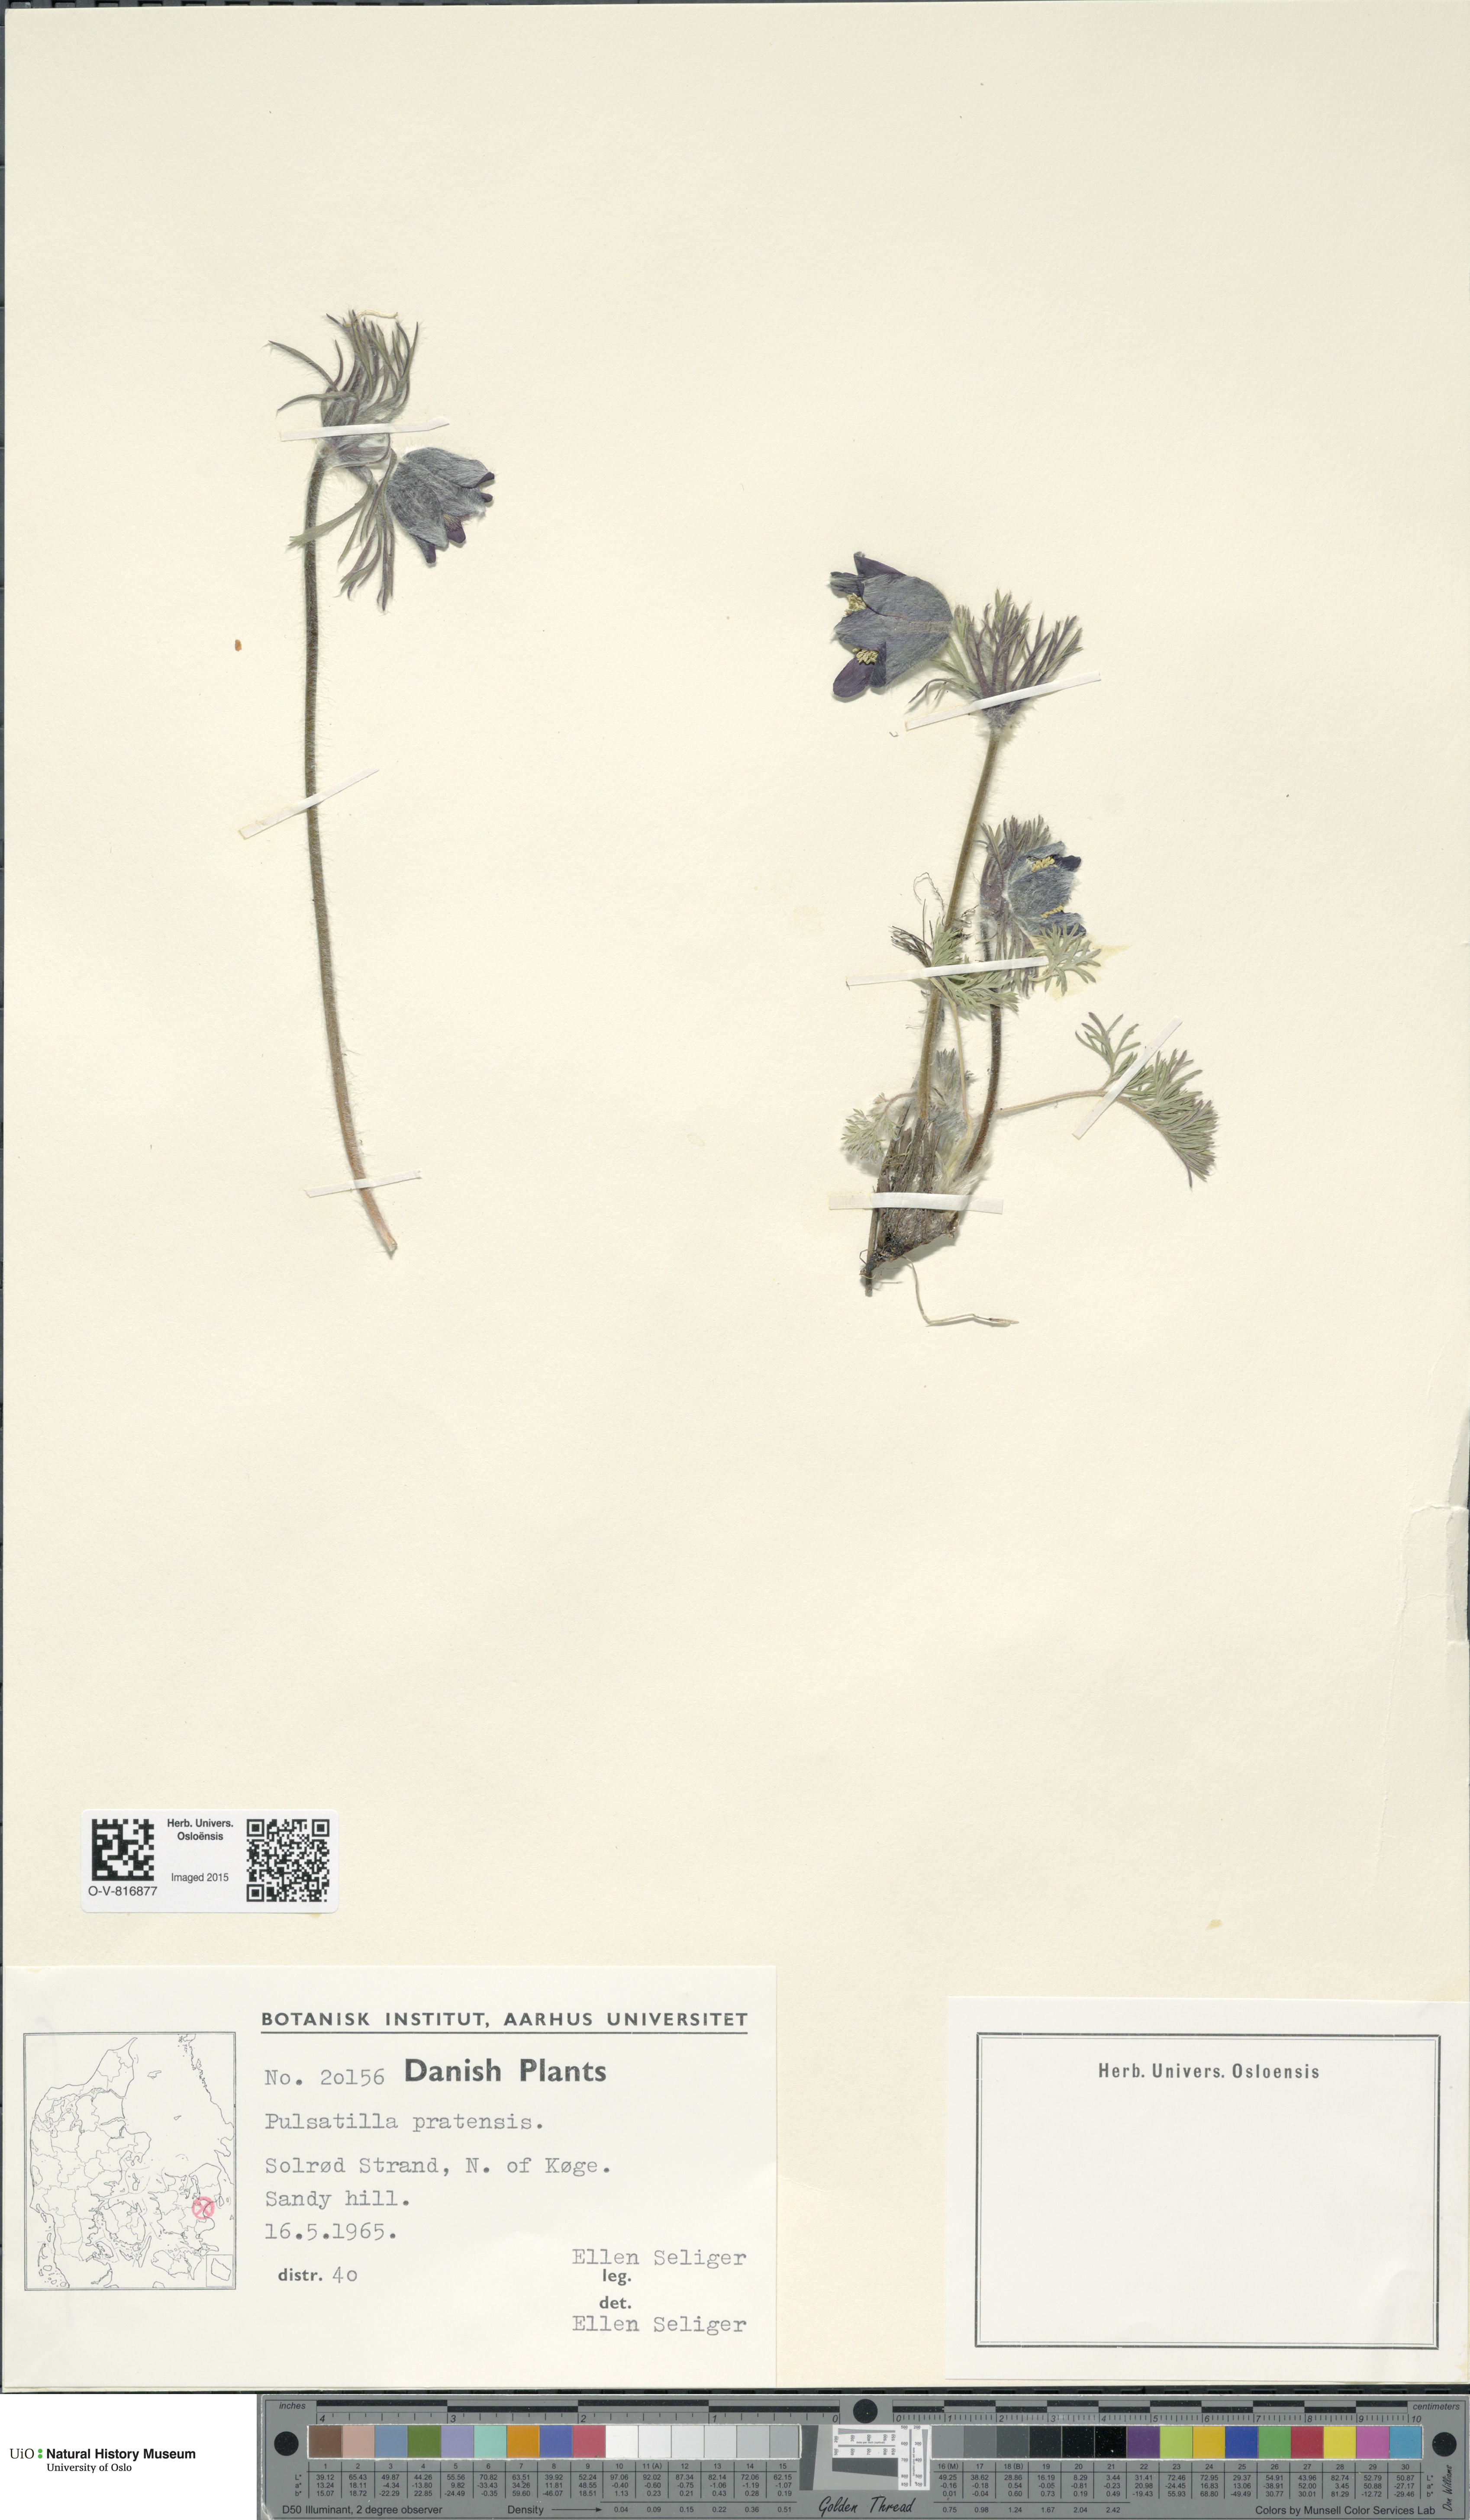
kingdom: Plantae
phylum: Tracheophyta
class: Magnoliopsida
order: Ranunculales
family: Ranunculaceae
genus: Pulsatilla
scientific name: Pulsatilla pratensis
